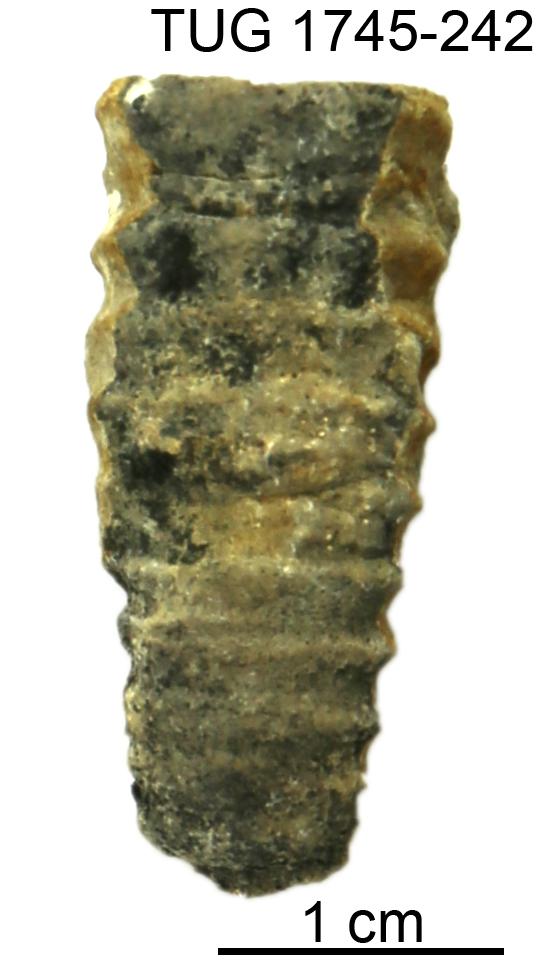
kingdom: Animalia
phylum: Mollusca
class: Cephalopoda
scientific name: Cephalopoda
